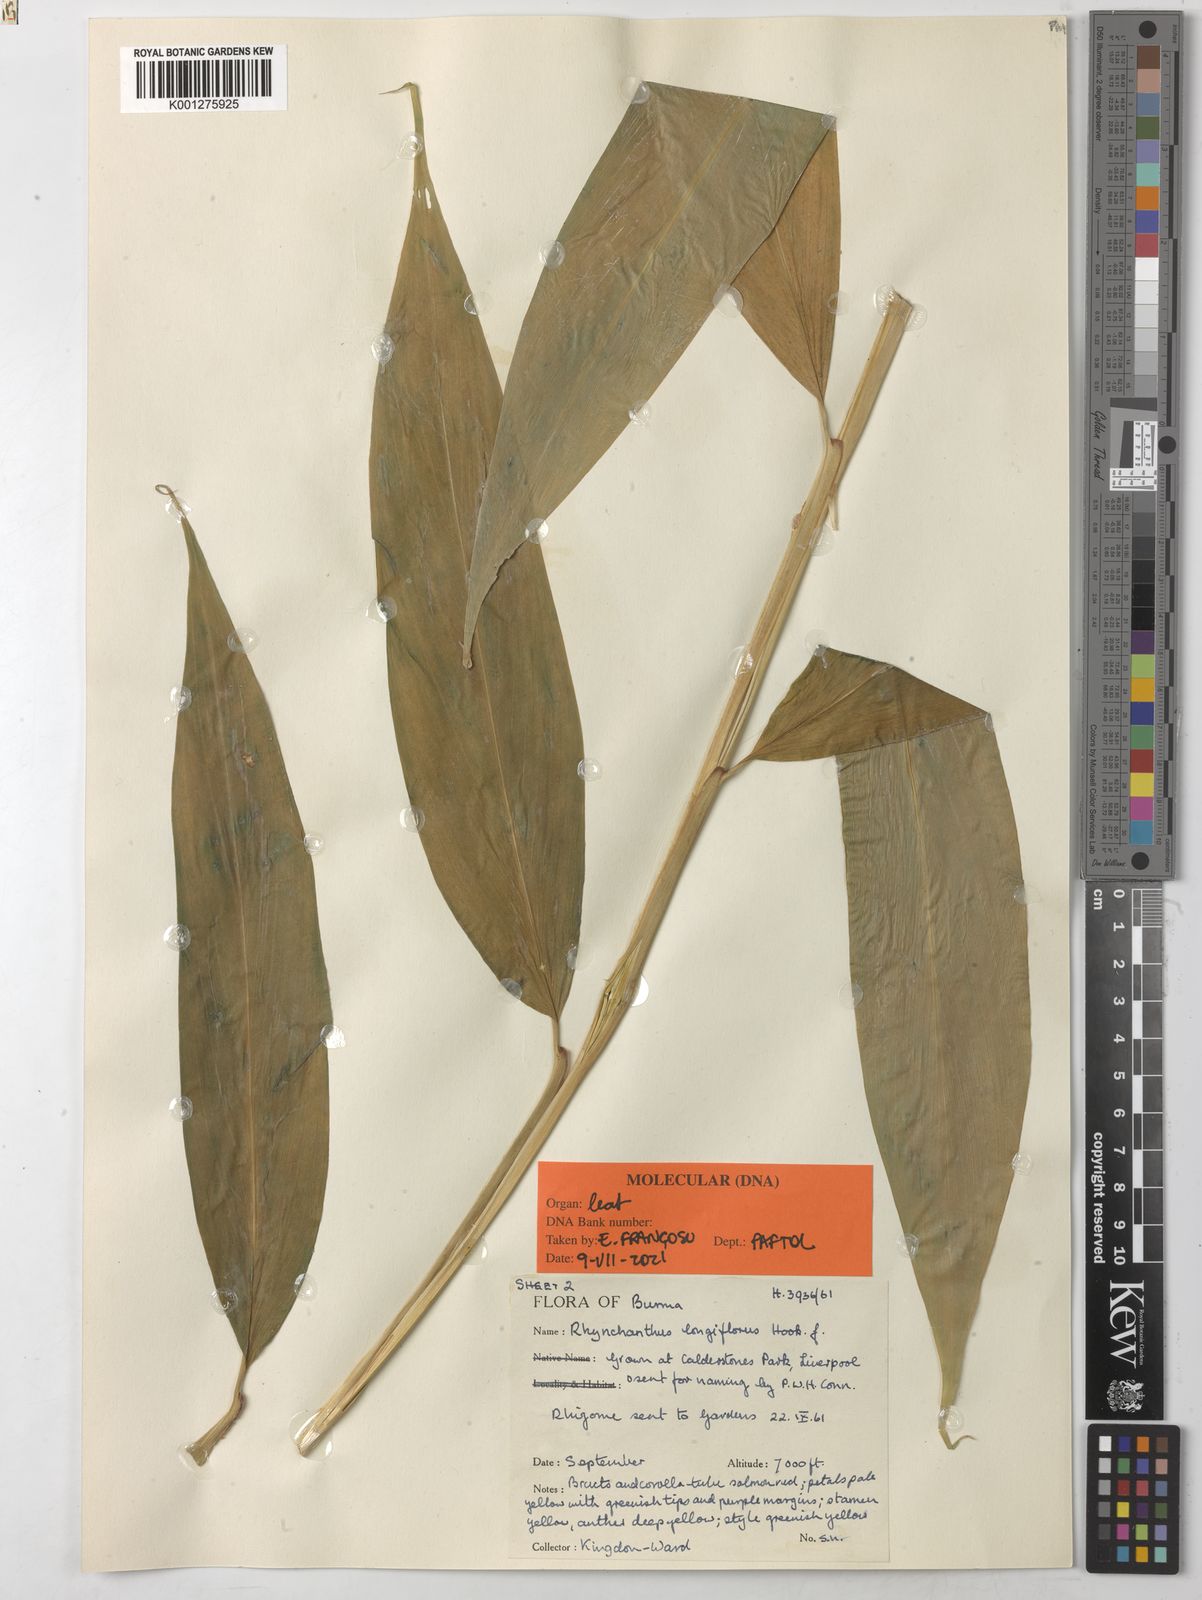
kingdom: Plantae
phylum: Tracheophyta
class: Liliopsida
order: Zingiberales
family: Zingiberaceae
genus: Rhynchanthus
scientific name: Rhynchanthus longiflorus
